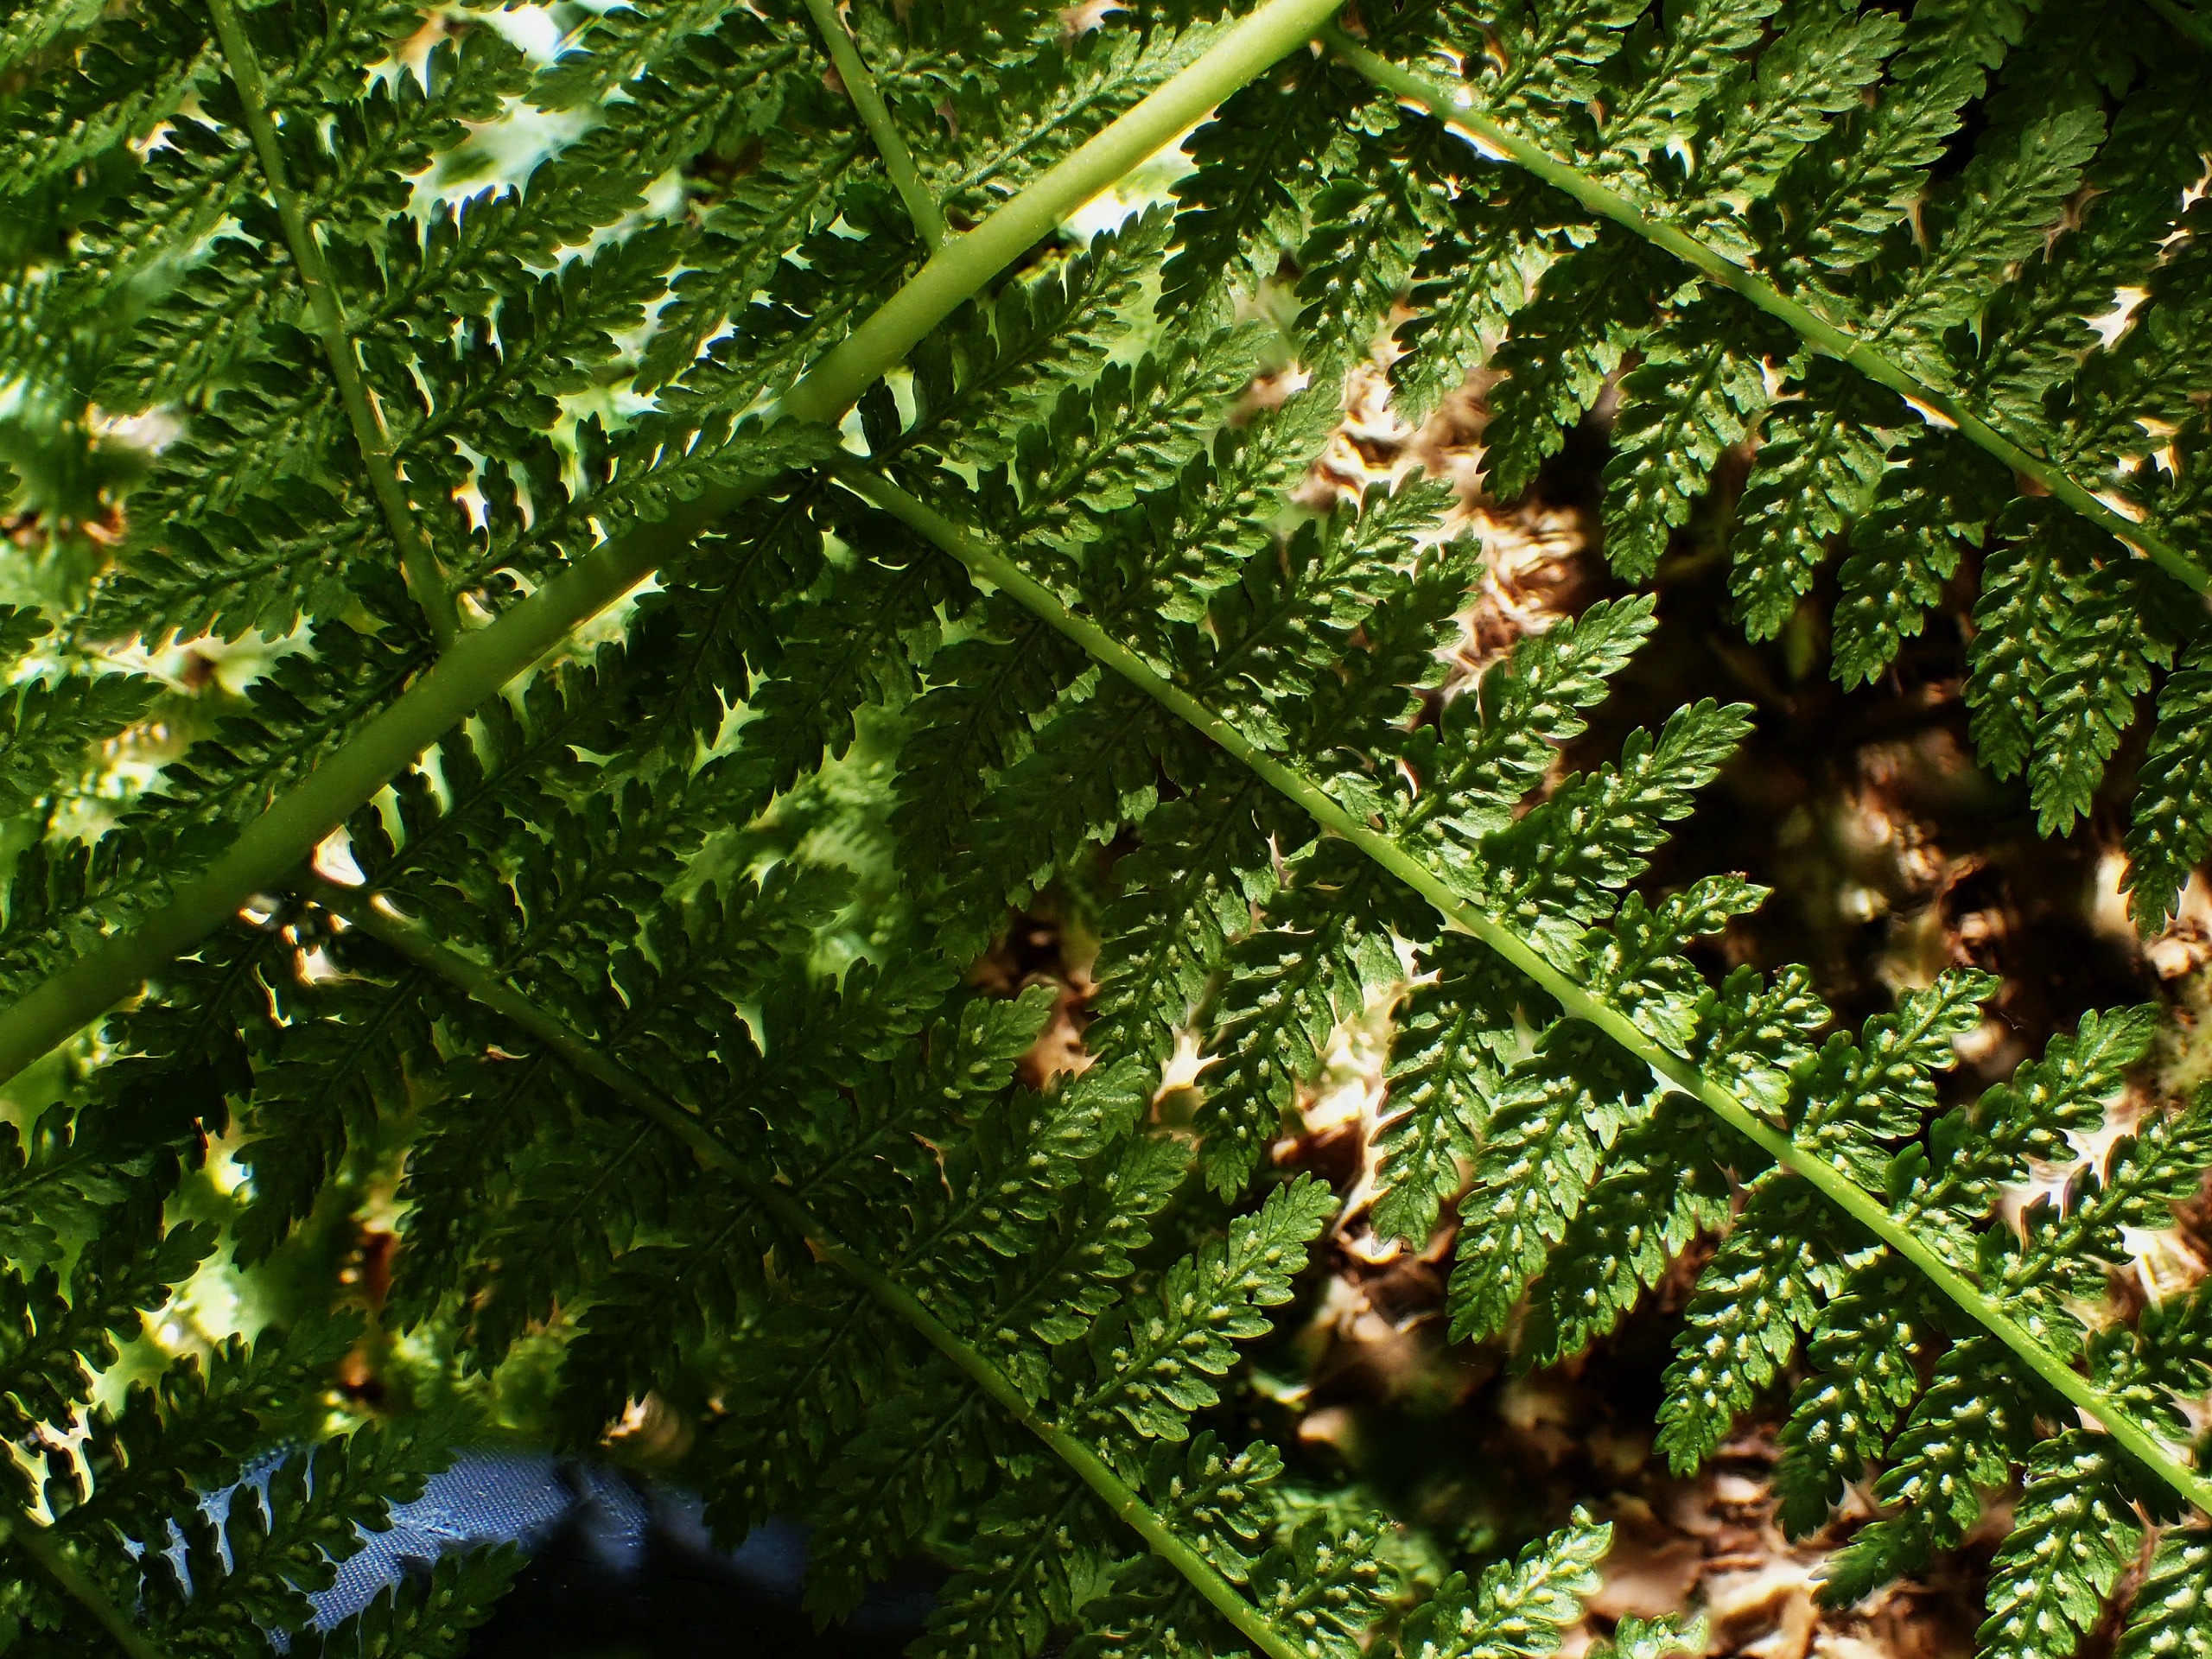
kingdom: Plantae
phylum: Tracheophyta
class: Polypodiopsida
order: Polypodiales
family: Athyriaceae
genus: Athyrium
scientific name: Athyrium filix-femina
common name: Fjerbregne
